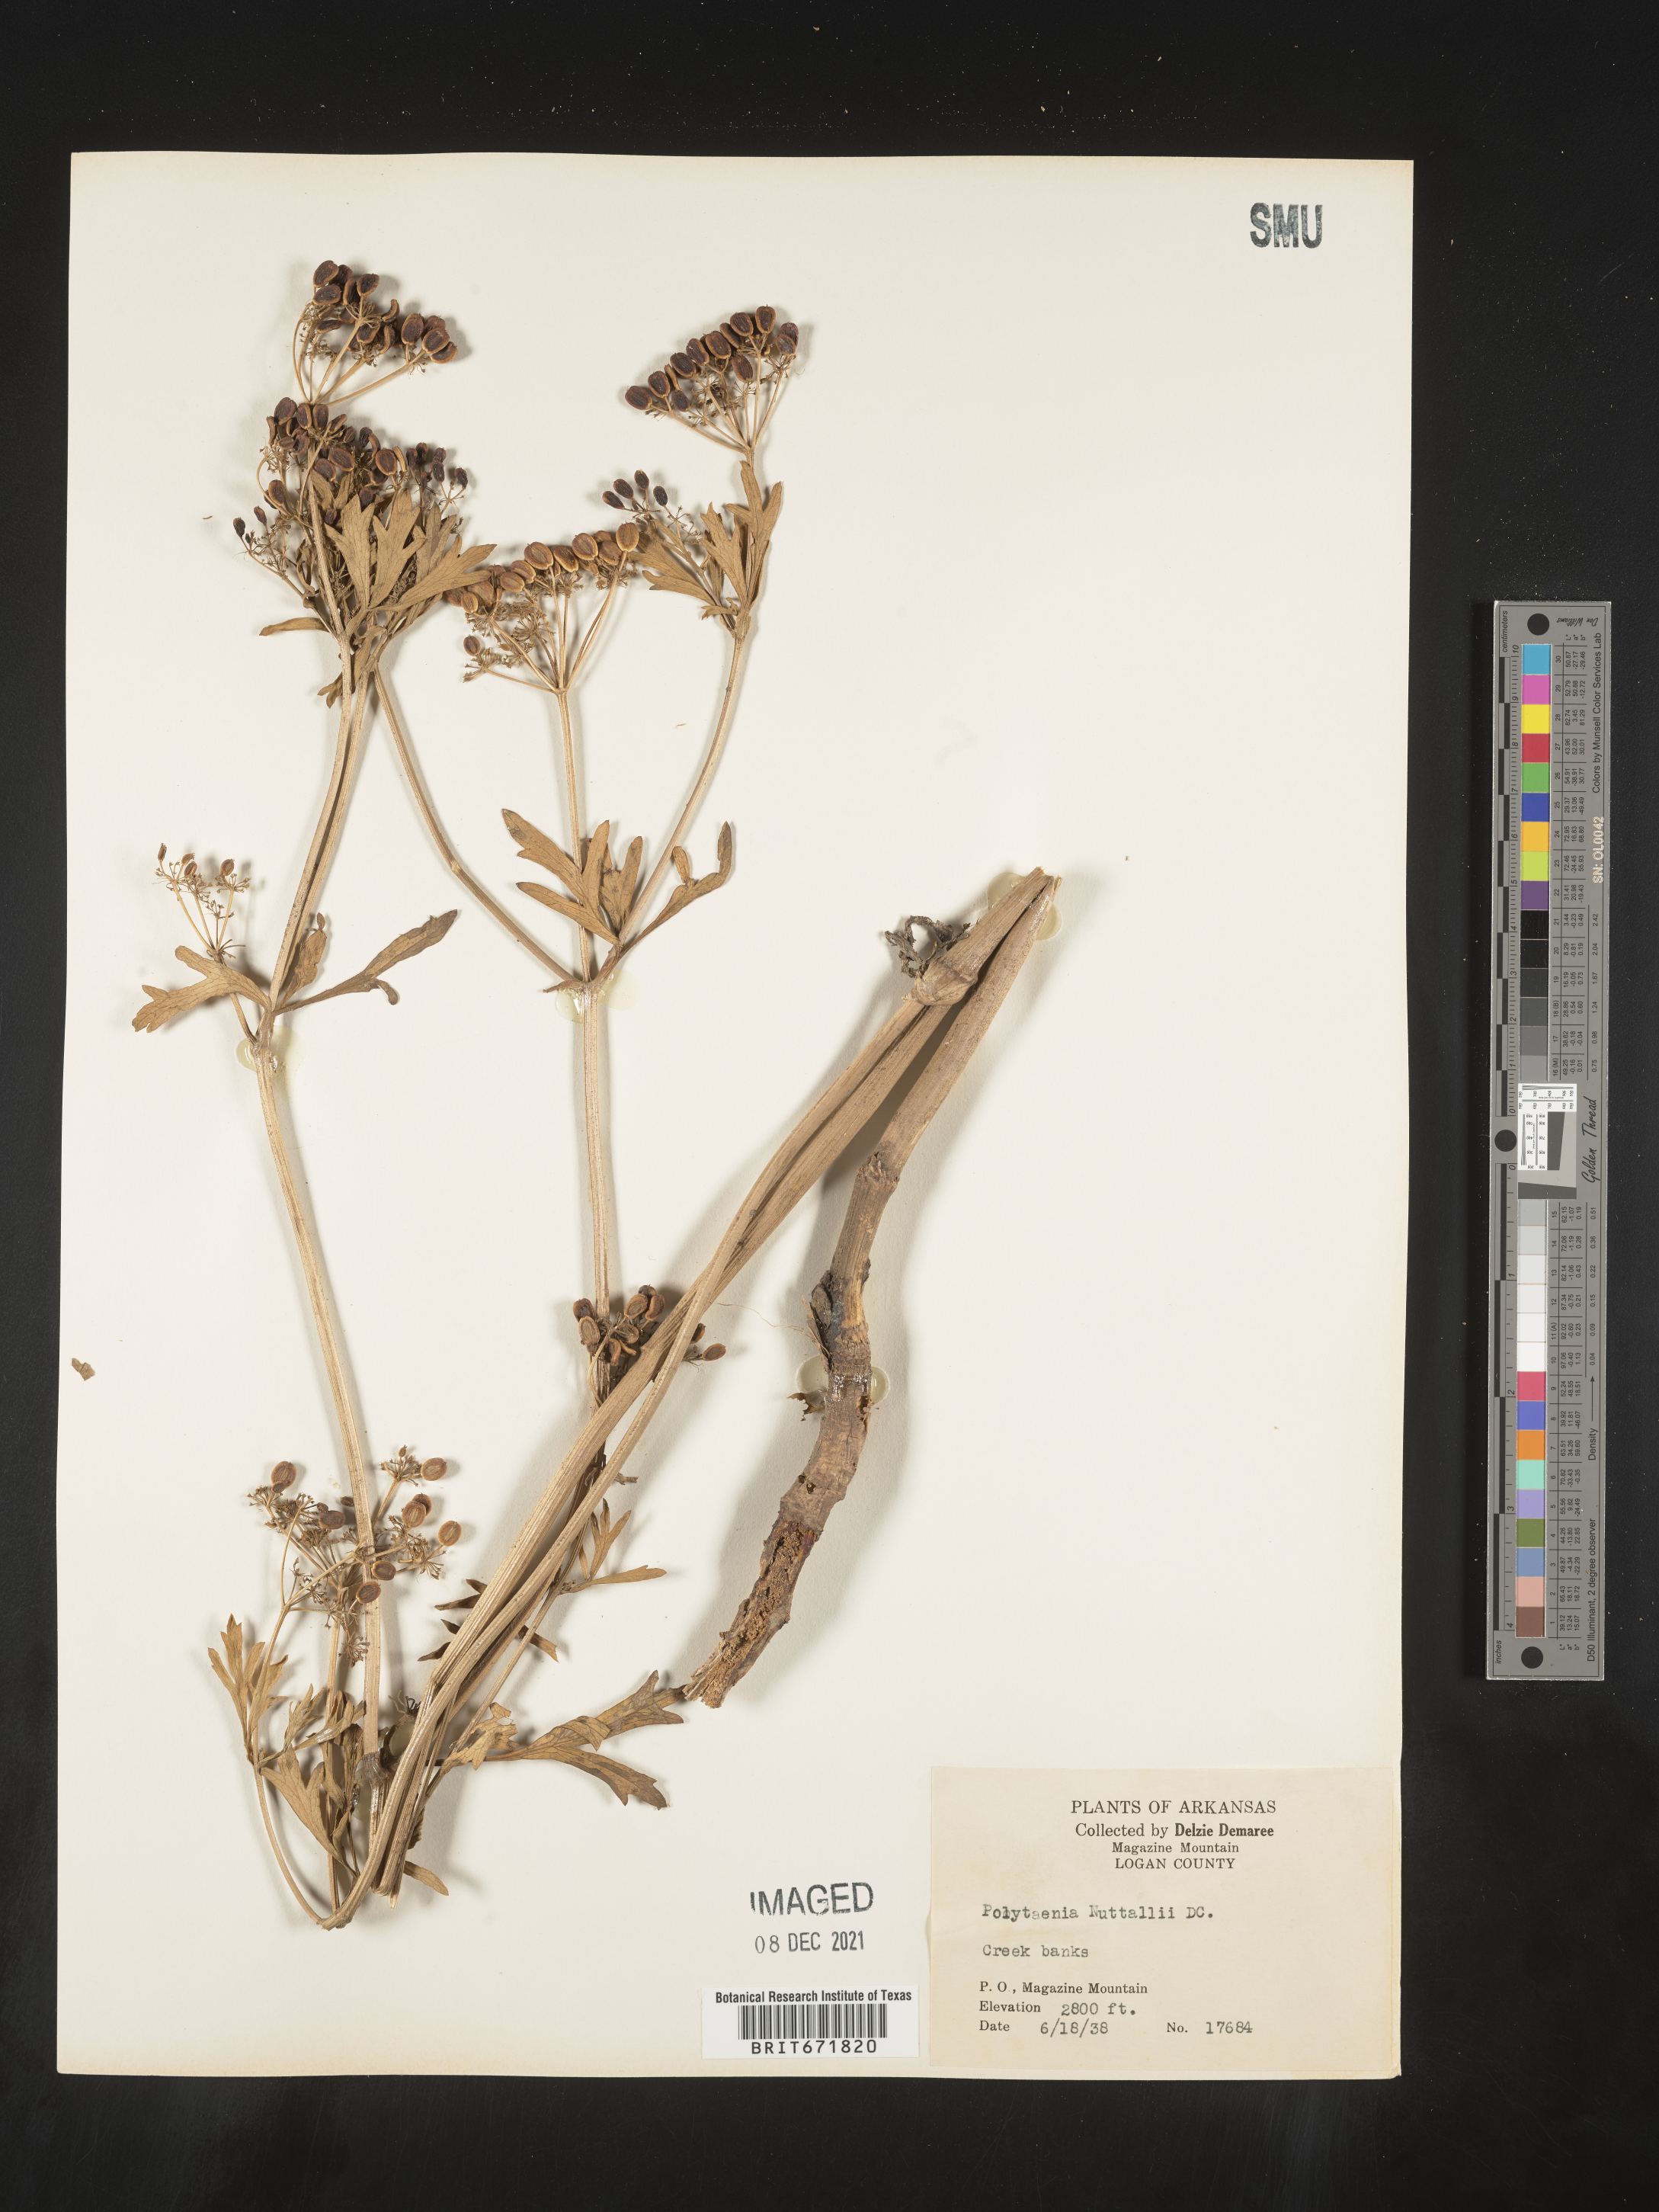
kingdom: Plantae
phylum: Tracheophyta
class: Magnoliopsida
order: Apiales
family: Apiaceae
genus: Polytaenia
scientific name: Polytaenia nuttallii
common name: Prairie-parsley
